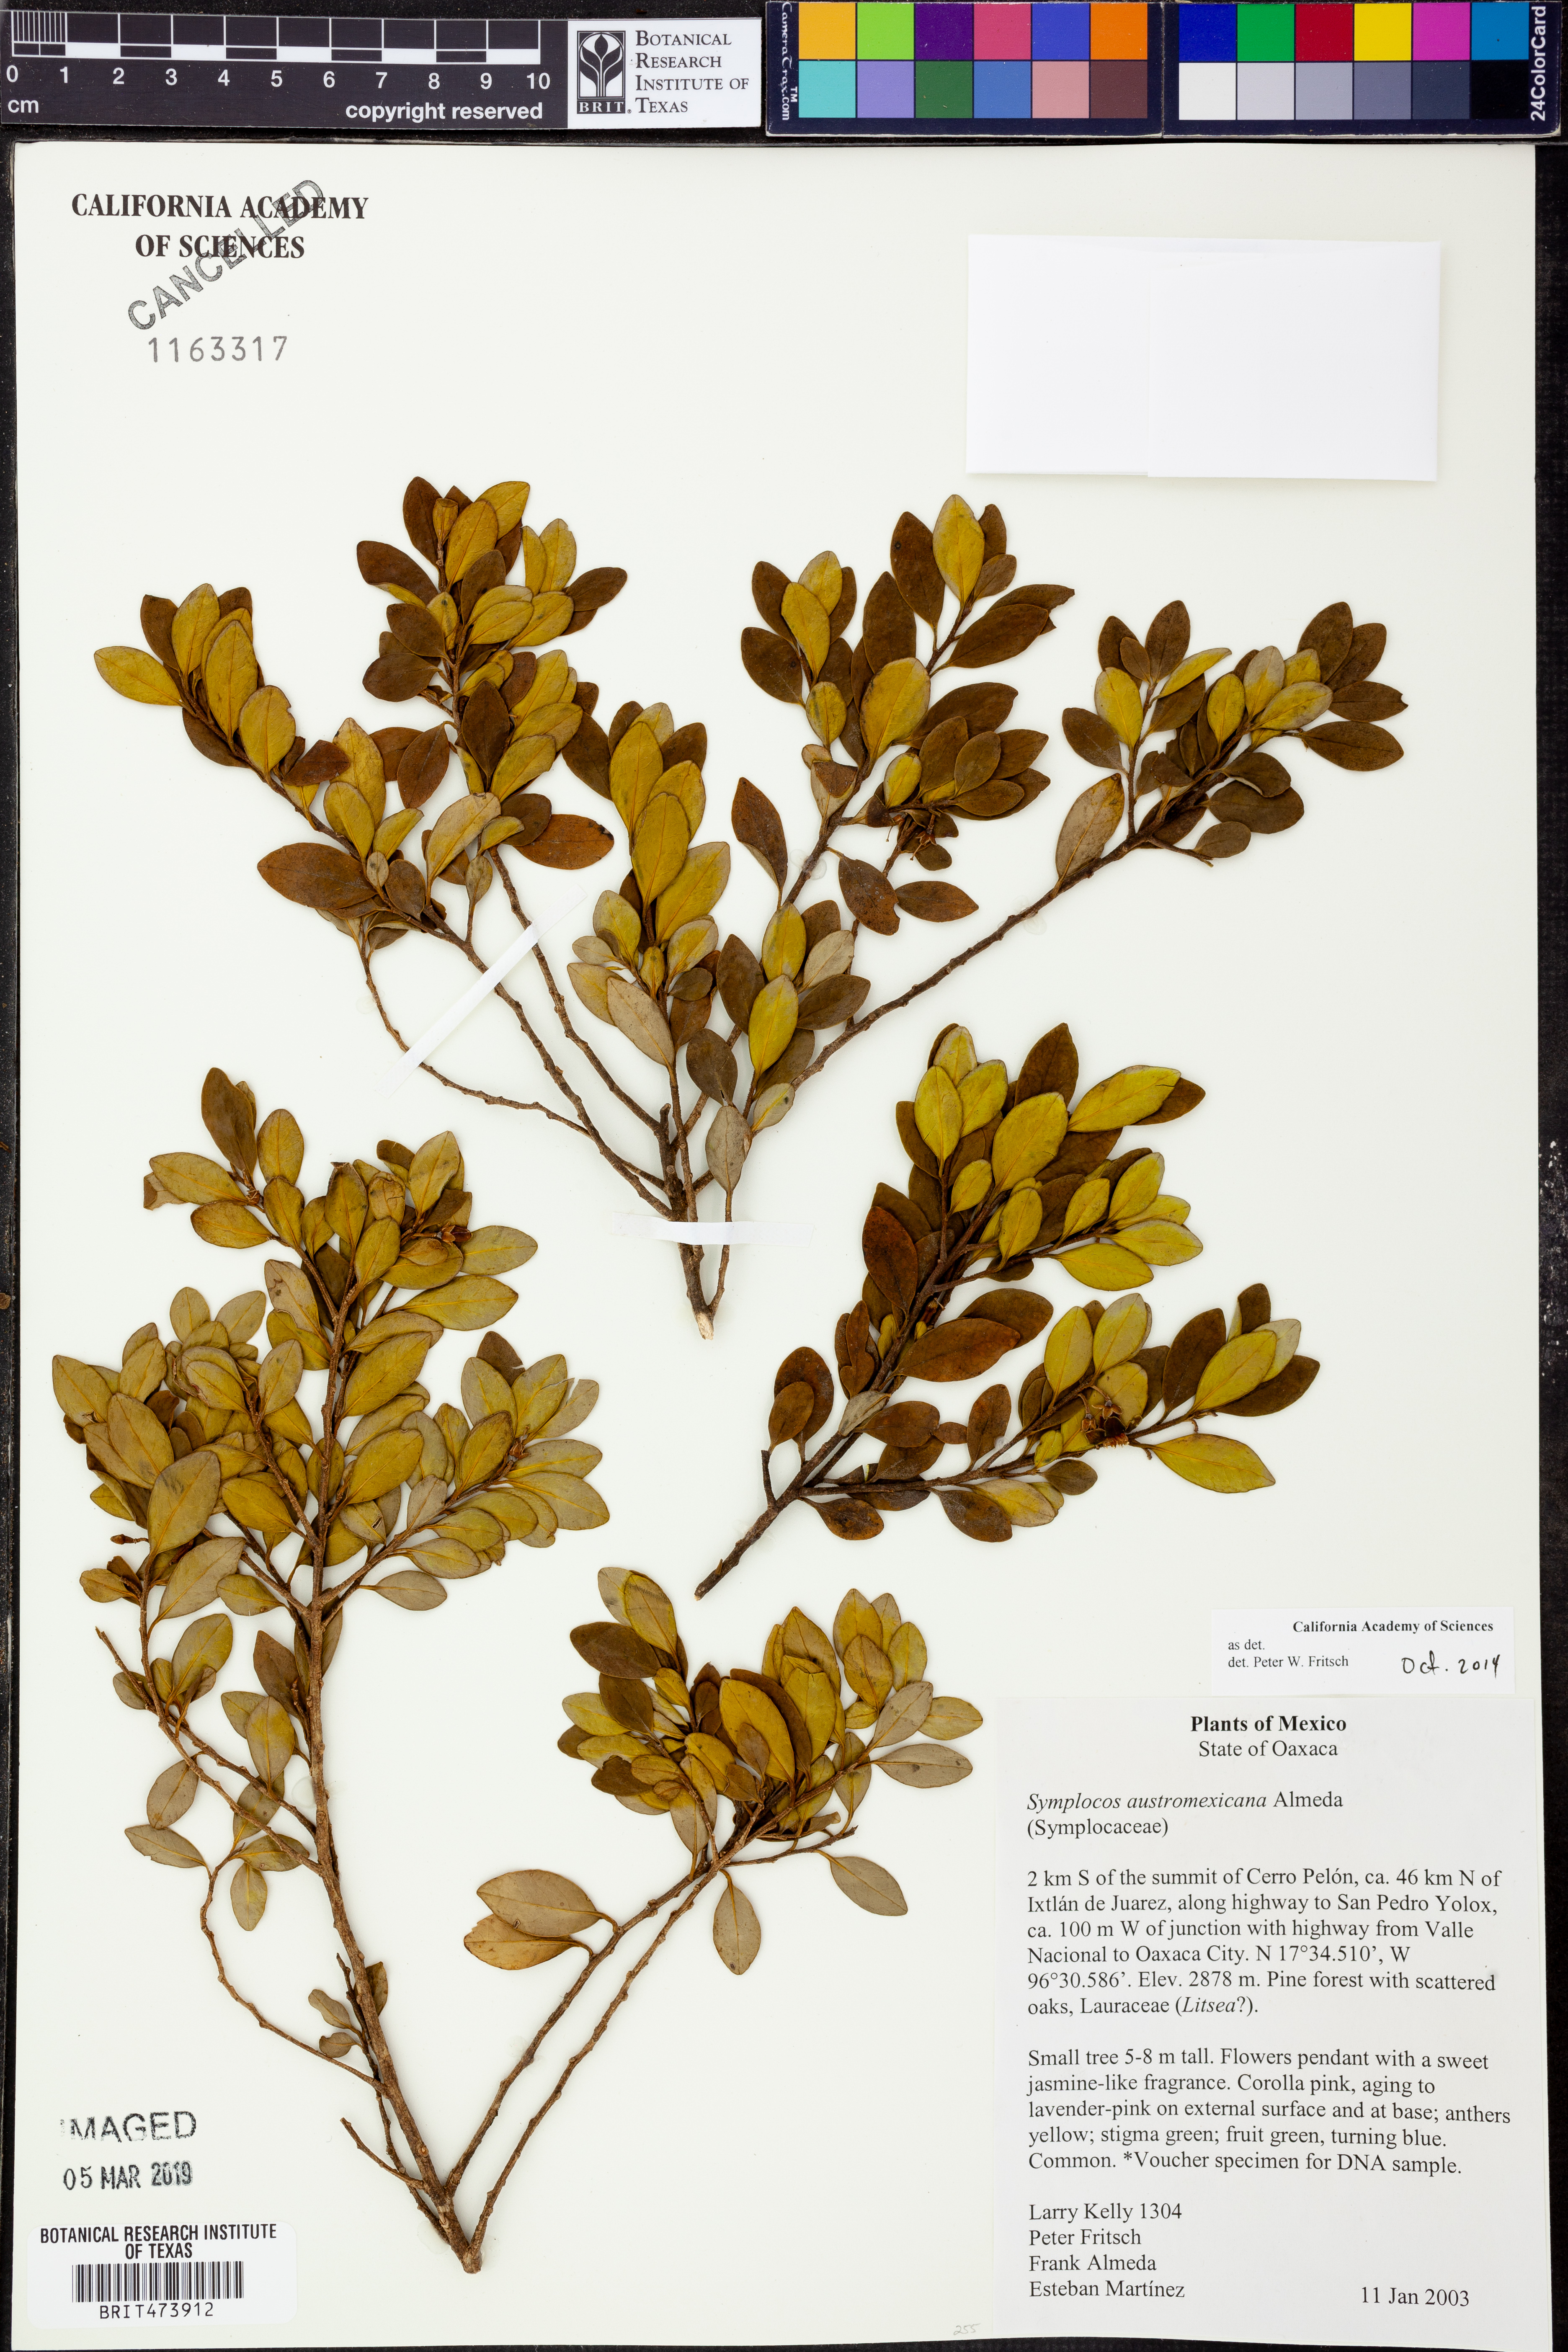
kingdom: Plantae
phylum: Tracheophyta
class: Magnoliopsida
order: Ericales
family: Symplocaceae
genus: Symplocos
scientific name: Symplocos austromexicana
